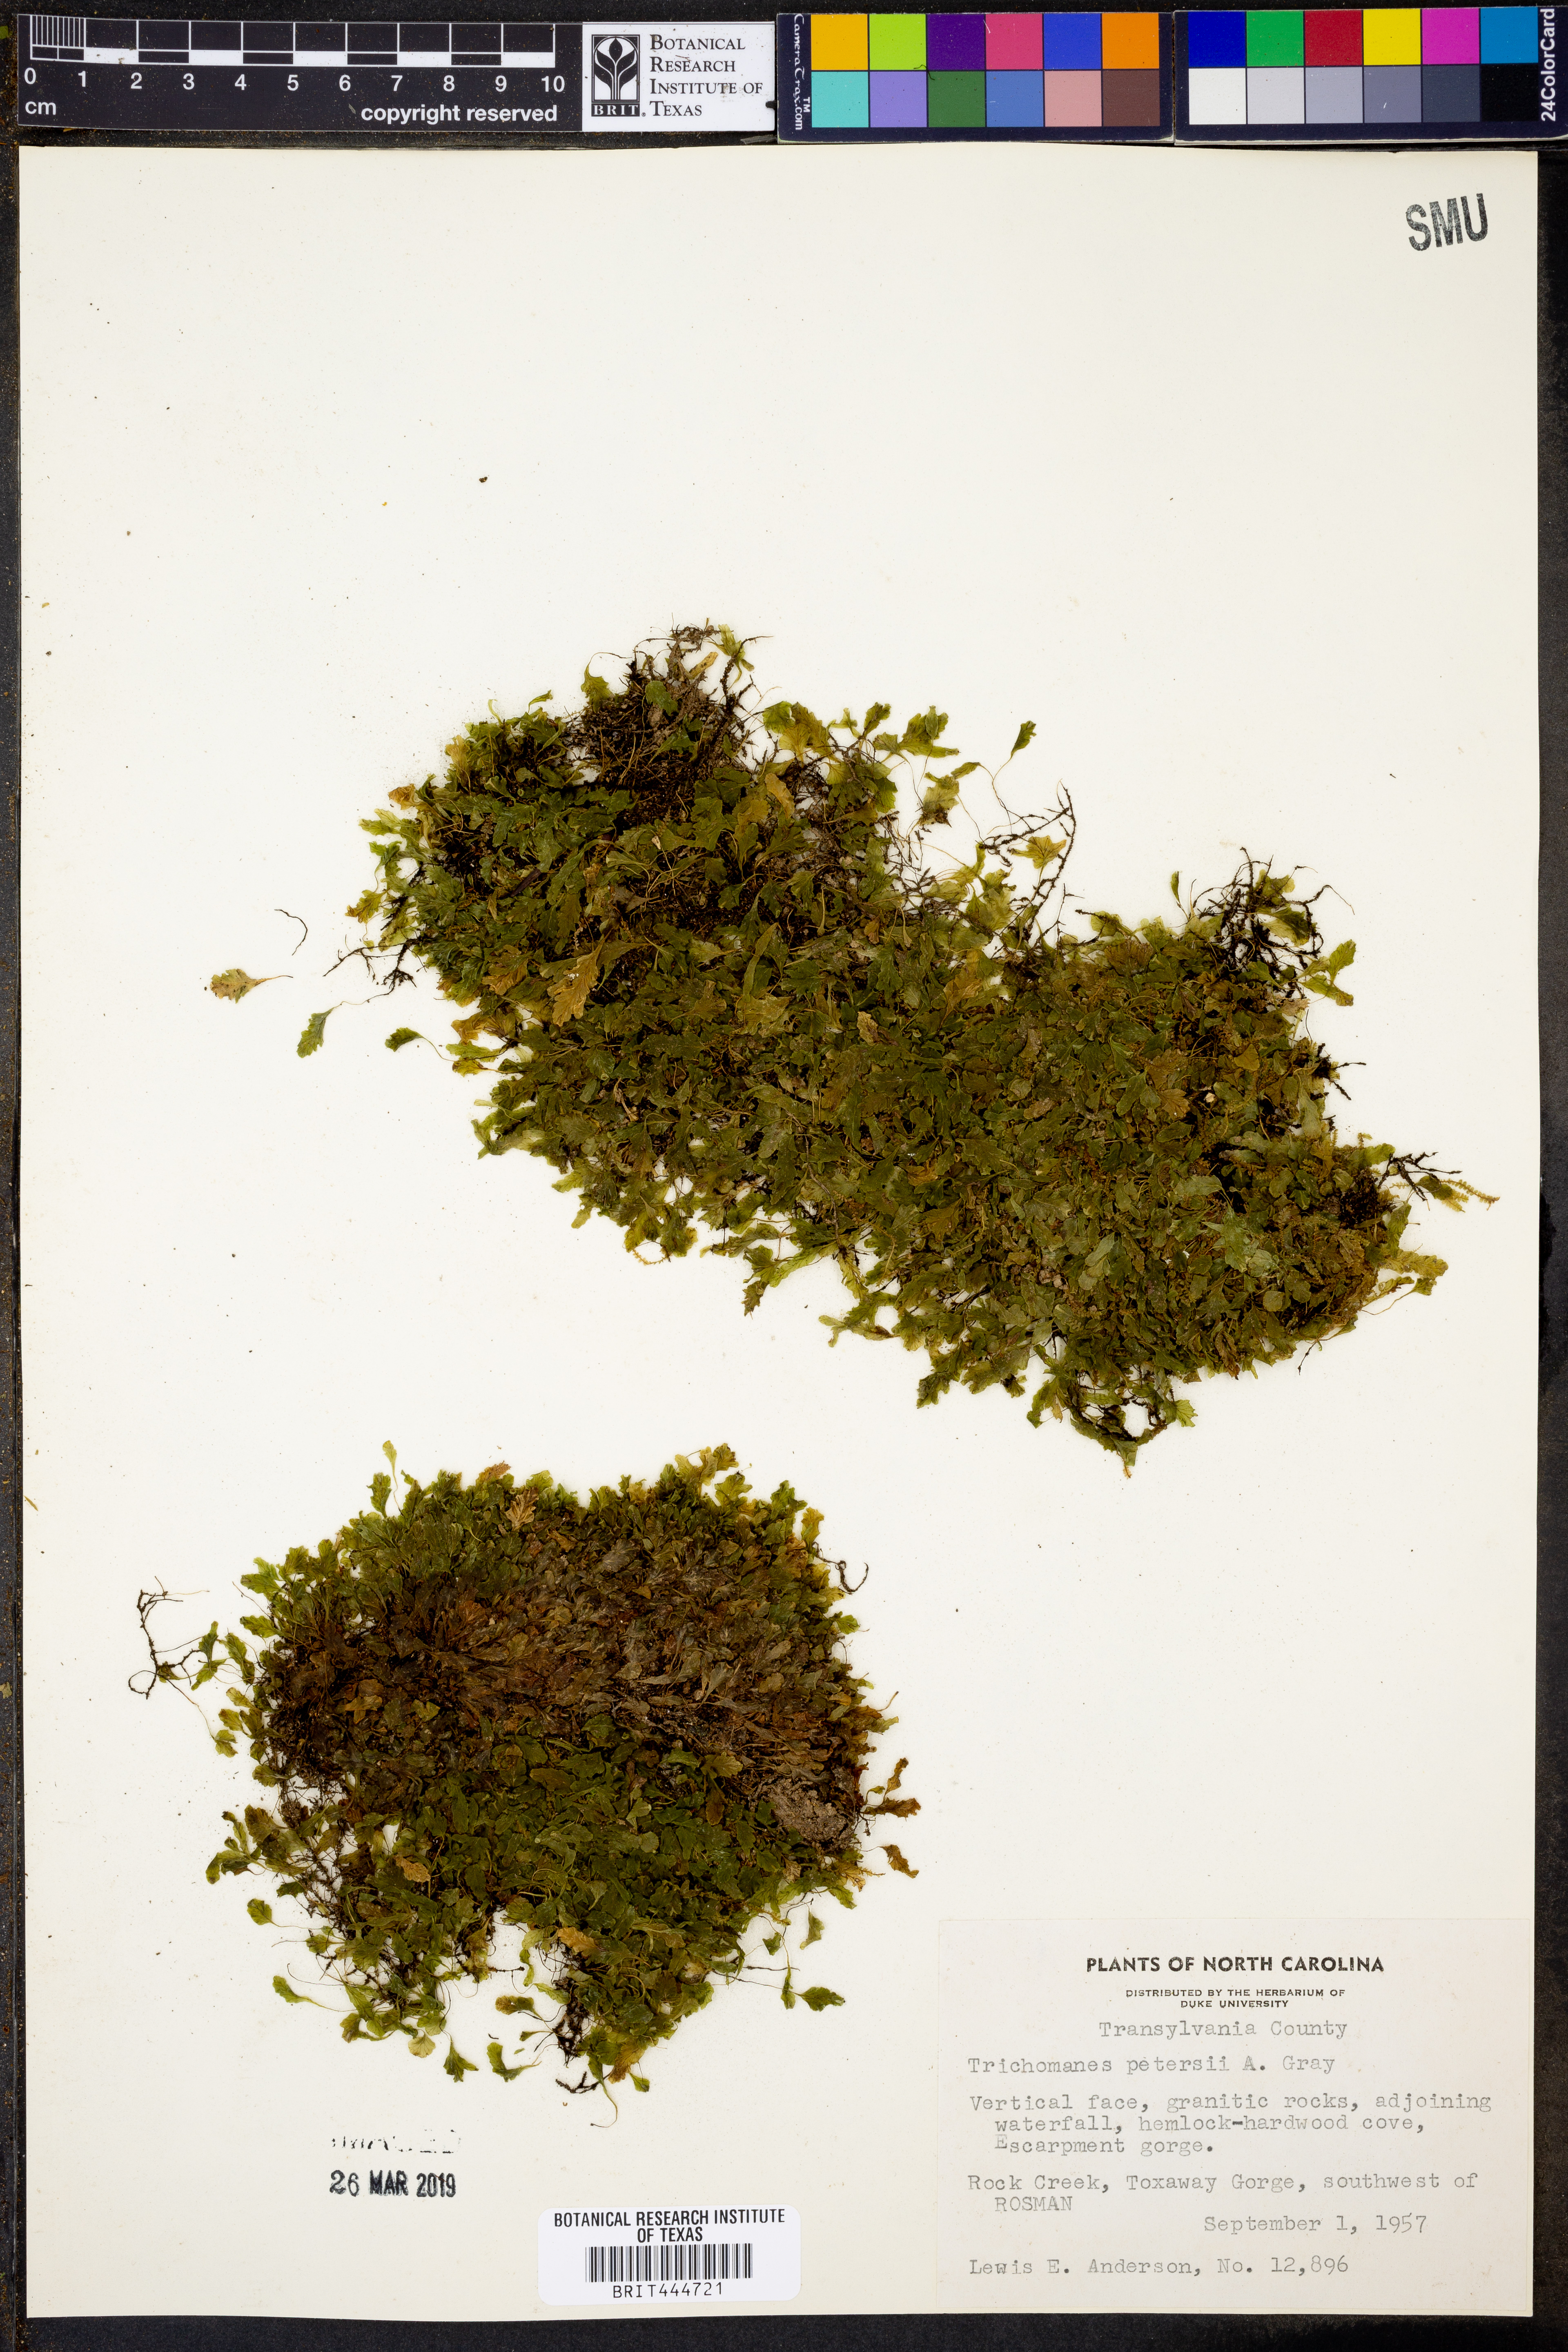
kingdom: Plantae
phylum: Tracheophyta
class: Polypodiopsida
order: Hymenophyllales
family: Hymenophyllaceae
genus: Didymoglossum
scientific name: Didymoglossum petersii
